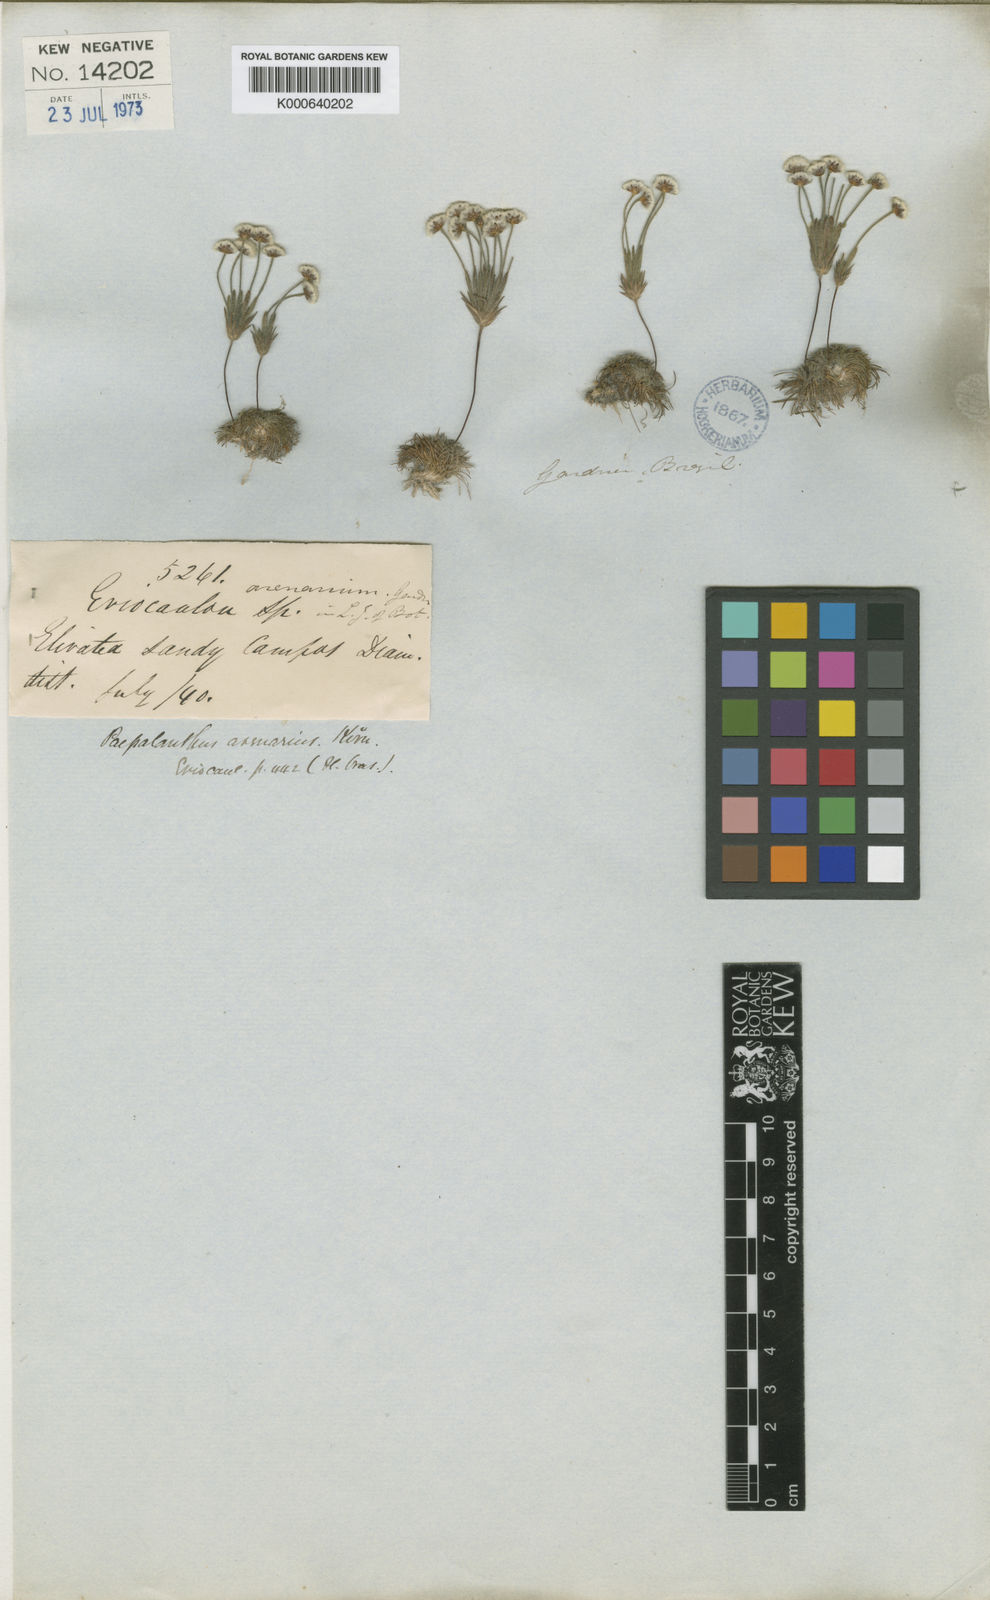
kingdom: Plantae
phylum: Tracheophyta
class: Liliopsida
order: Poales
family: Eriocaulaceae
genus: Syngonanthus
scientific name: Syngonanthus arenarius
